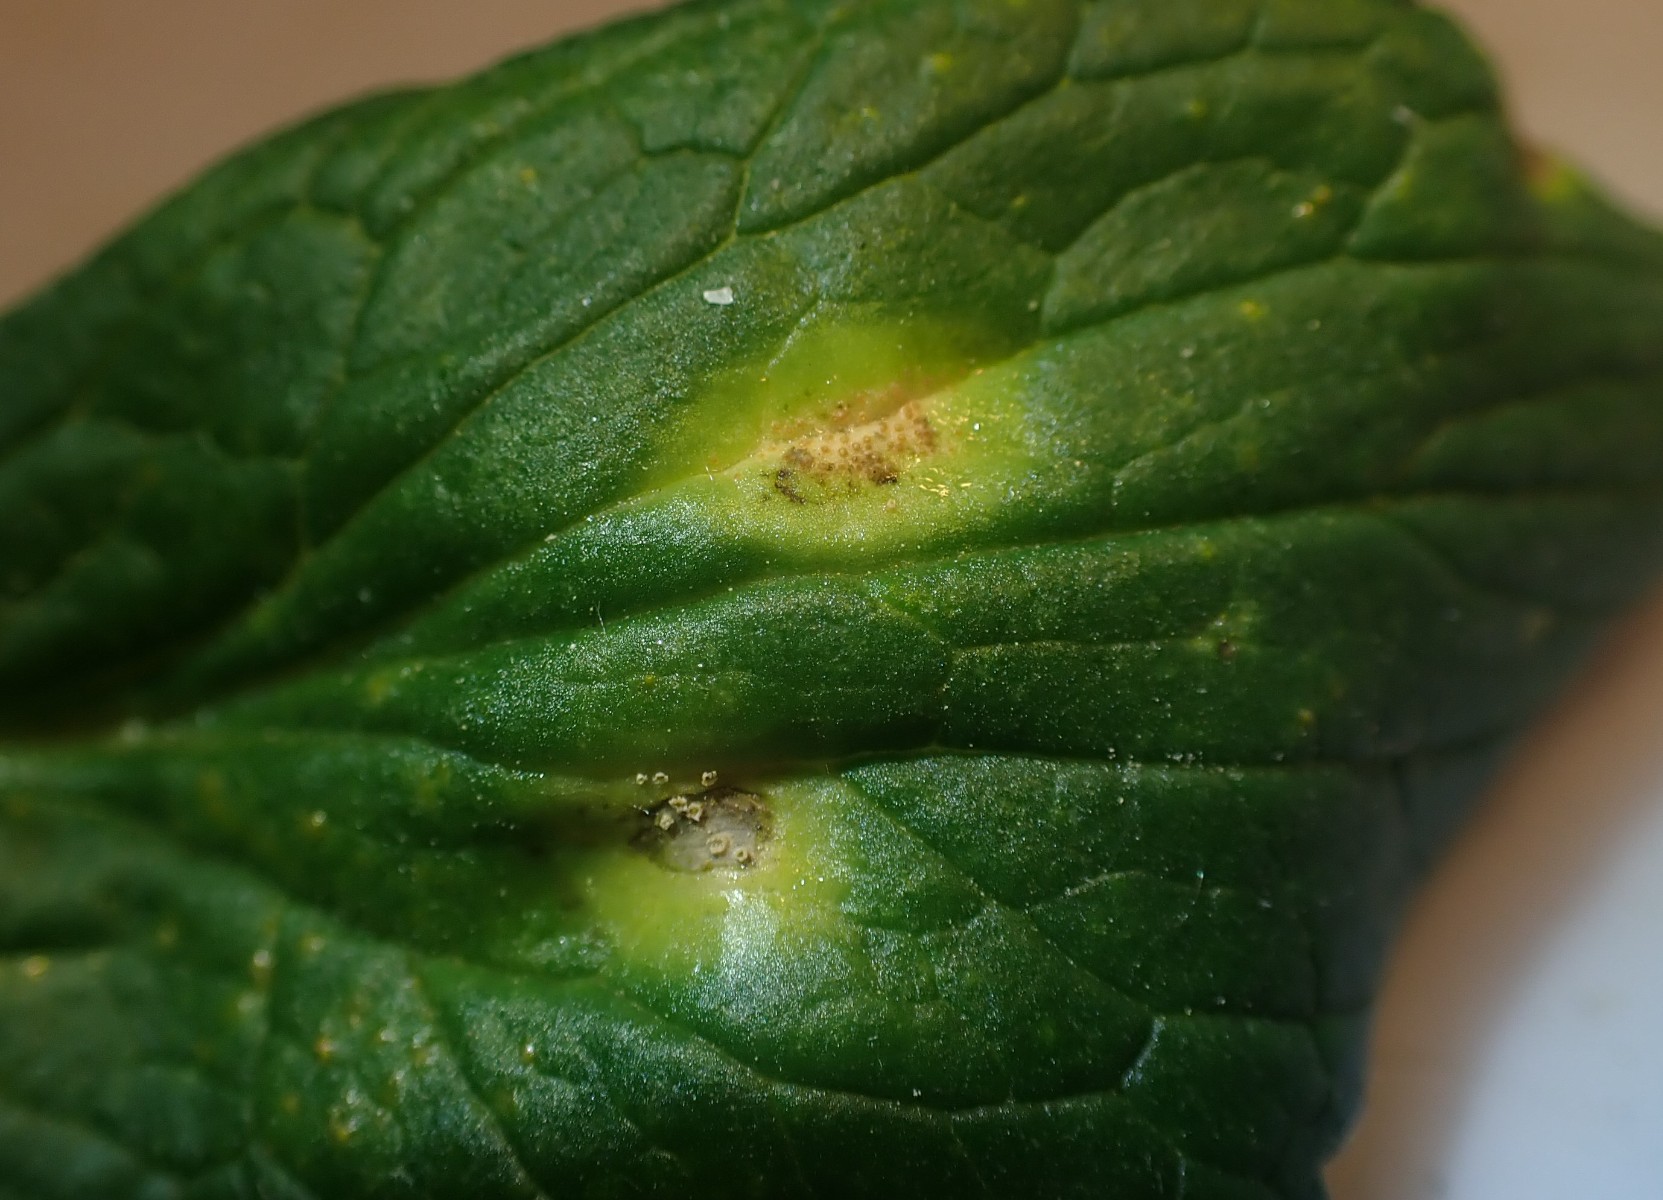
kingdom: Fungi
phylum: Basidiomycota
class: Pucciniomycetes
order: Pucciniales
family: Pucciniaceae
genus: Puccinia
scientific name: Puccinia commutata
